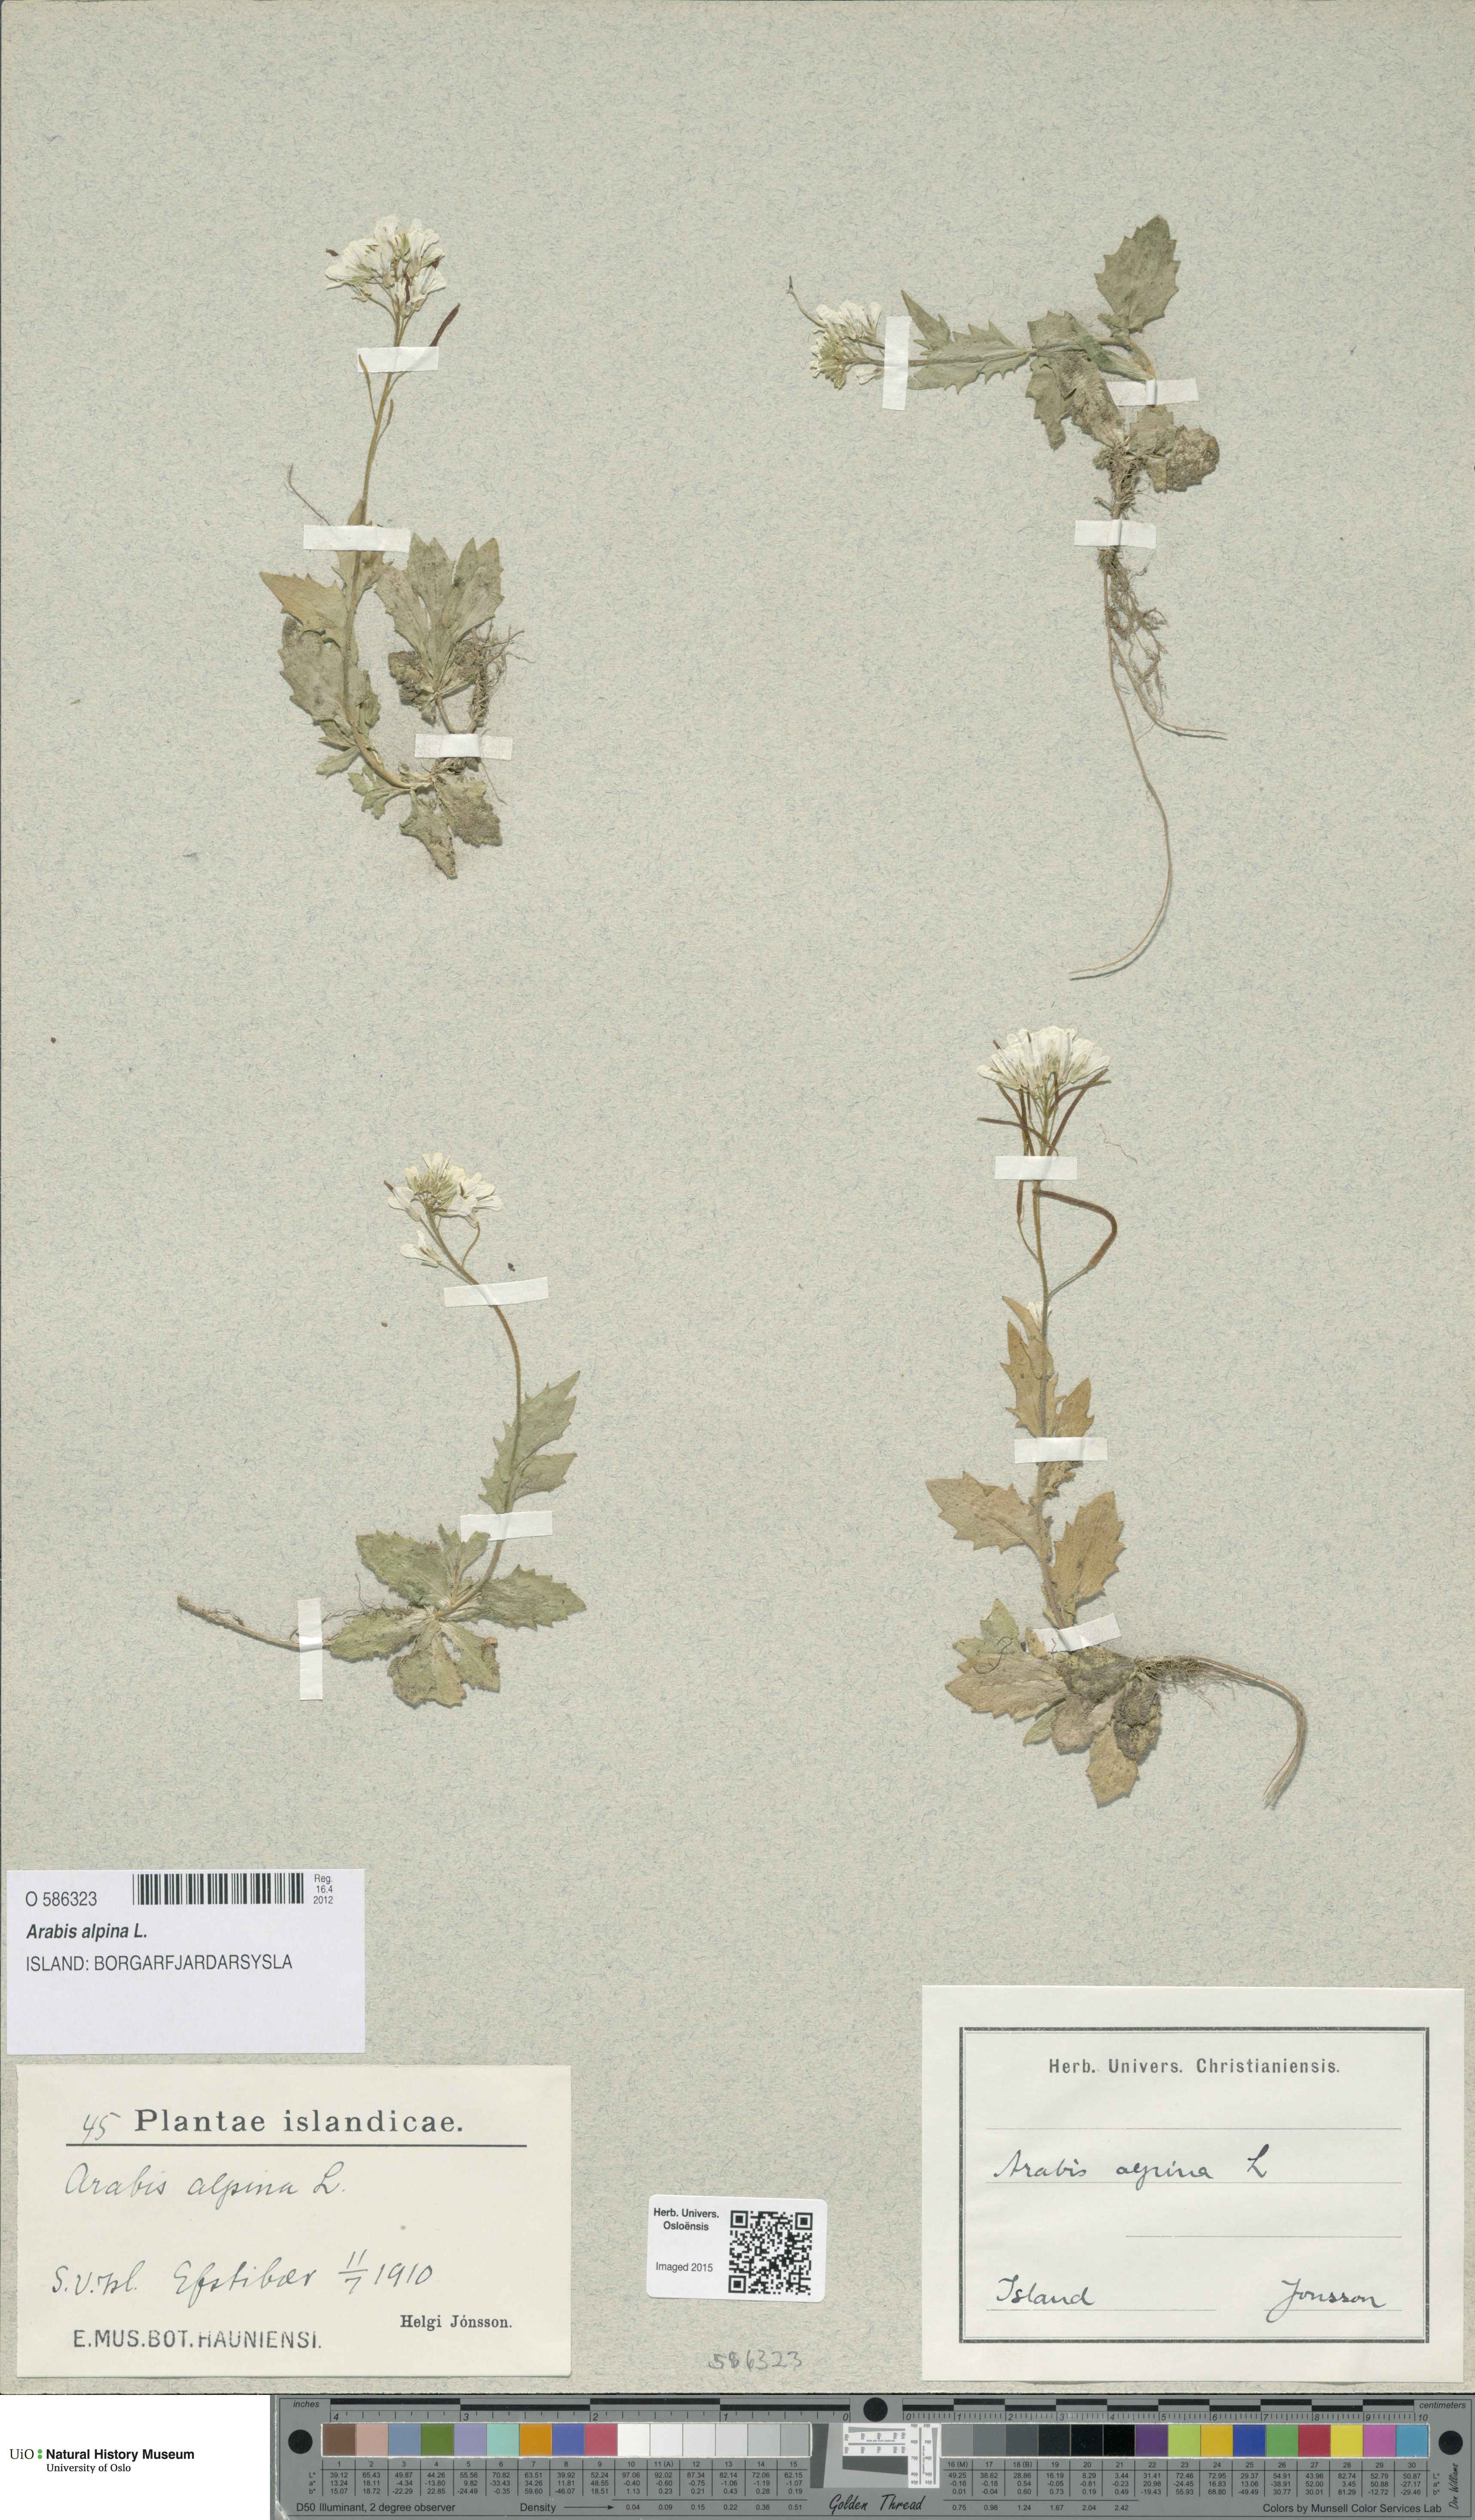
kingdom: Plantae
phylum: Tracheophyta
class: Magnoliopsida
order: Brassicales
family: Brassicaceae
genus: Arabis
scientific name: Arabis alpina
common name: Alpine rock-cress
